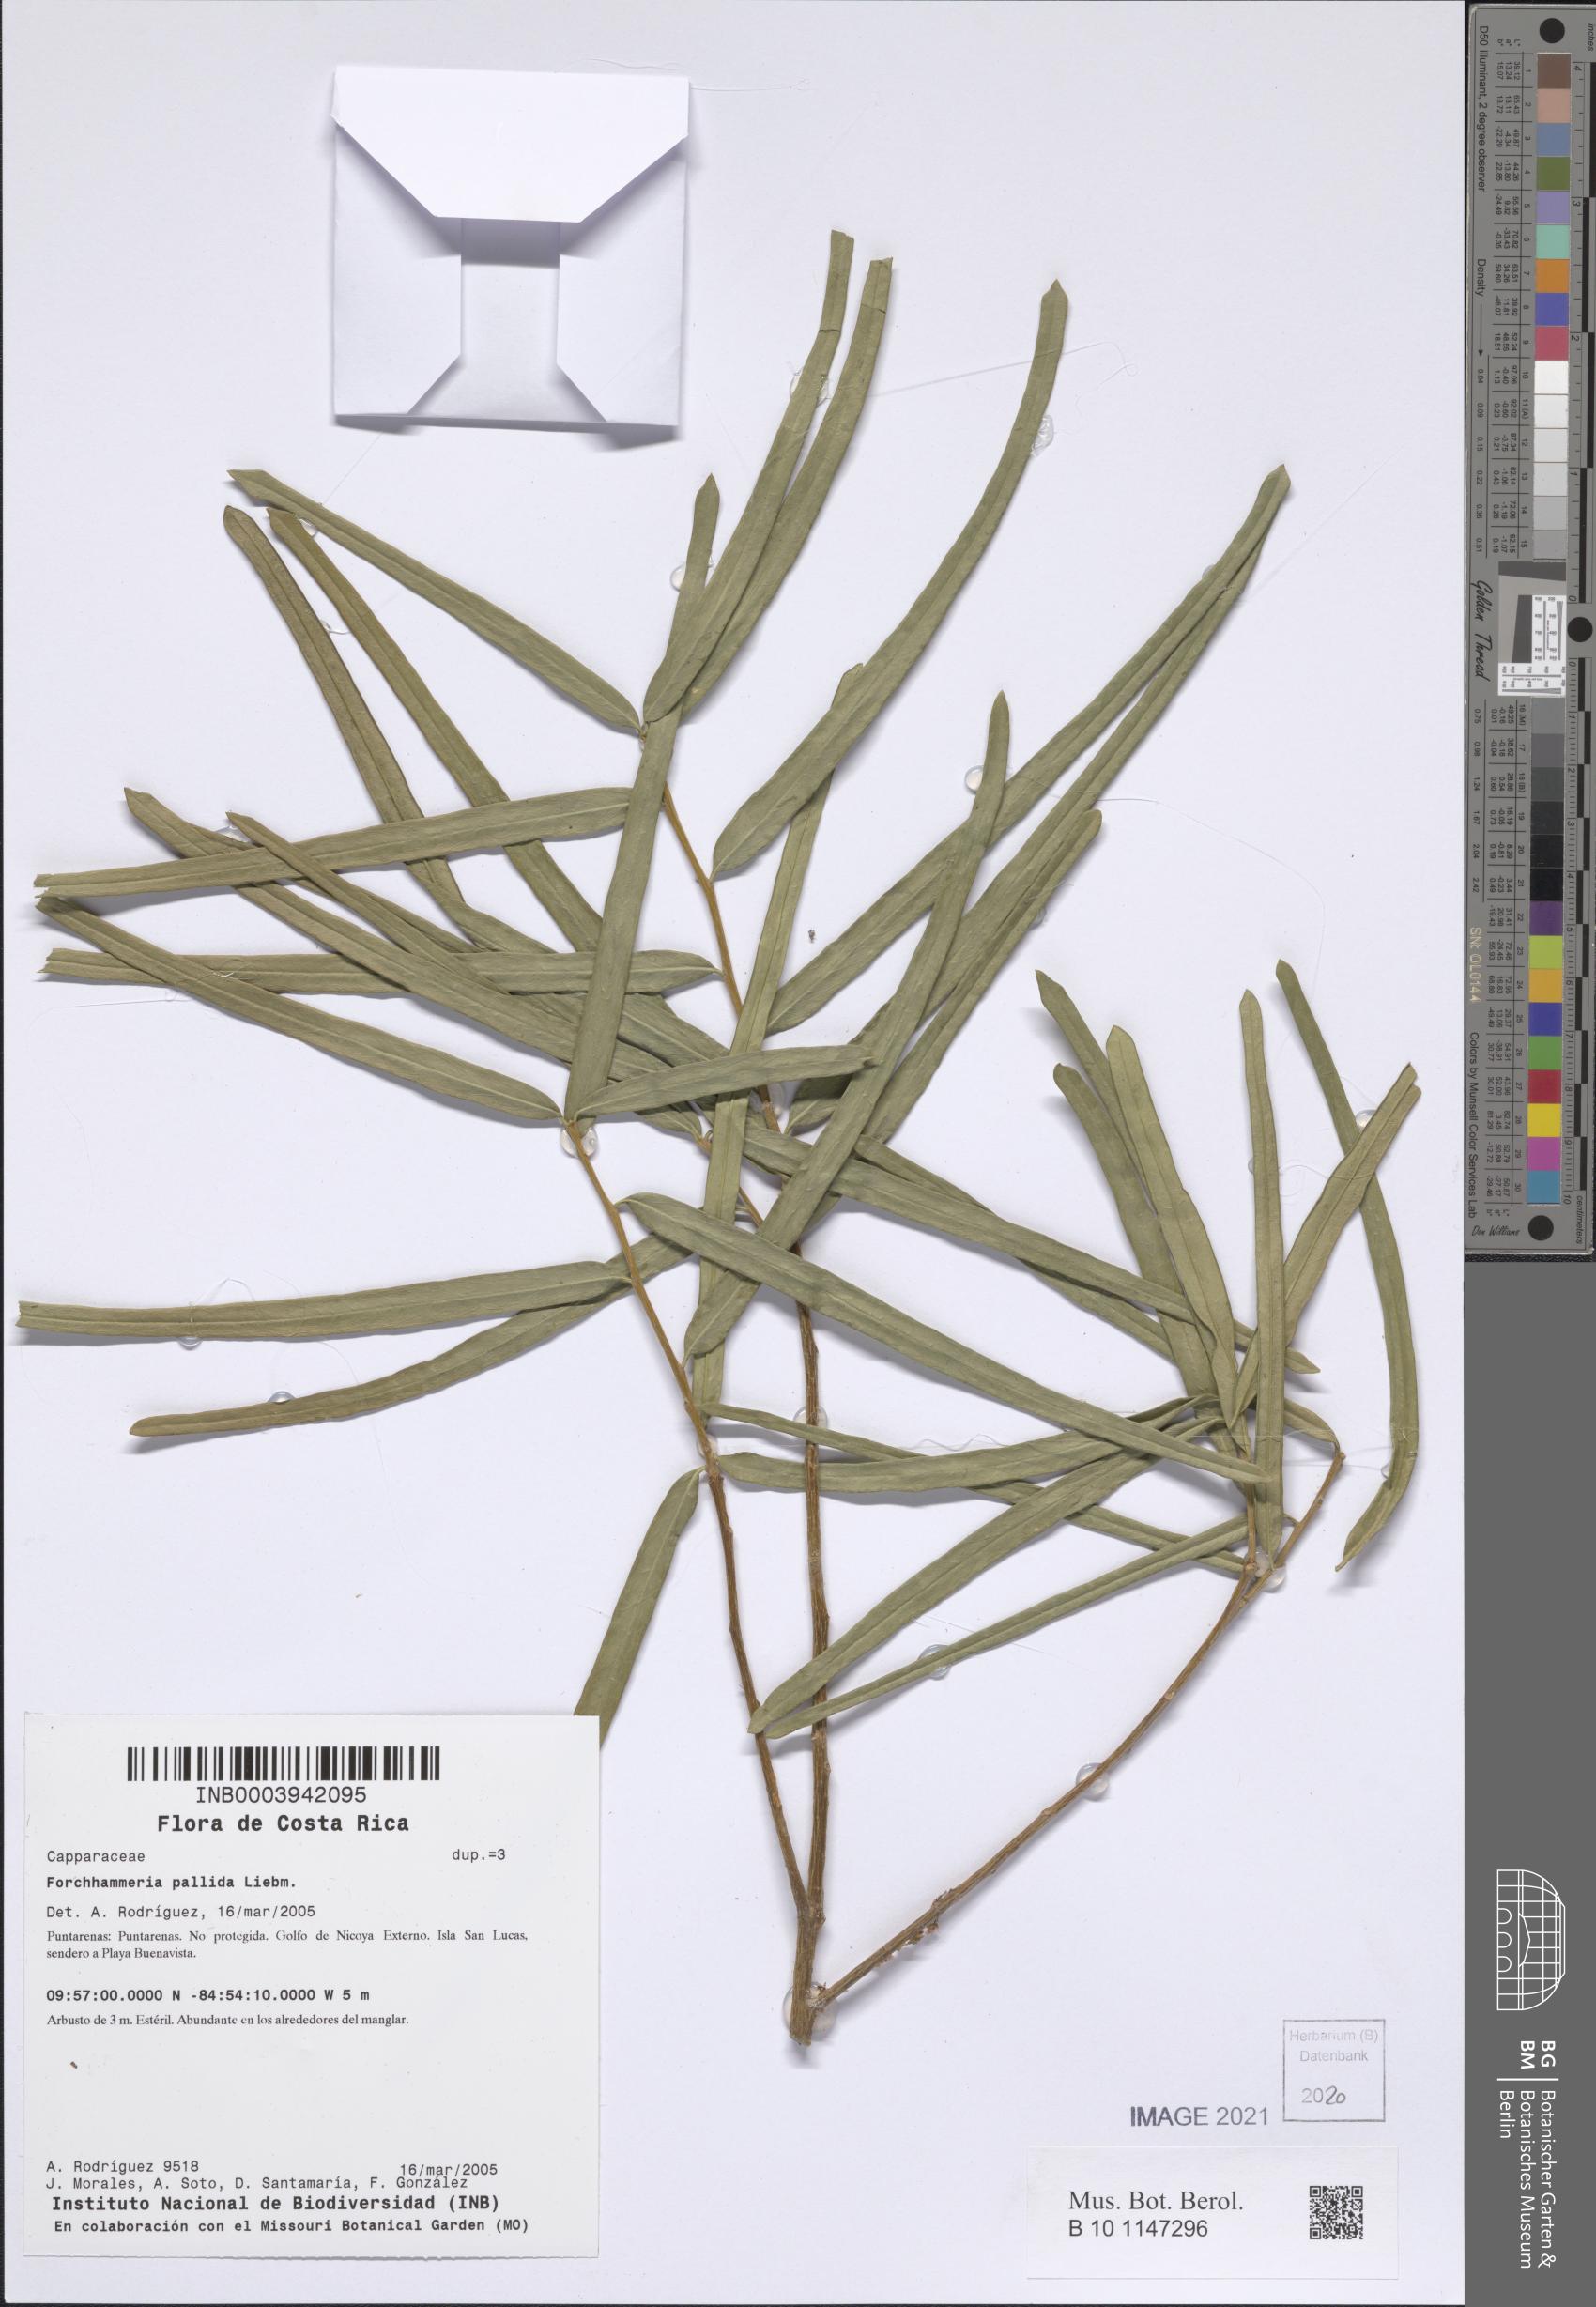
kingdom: Plantae
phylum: Tracheophyta
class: Magnoliopsida
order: Brassicales
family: Stixaceae
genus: Forchhammeria
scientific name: Forchhammeria pallida
